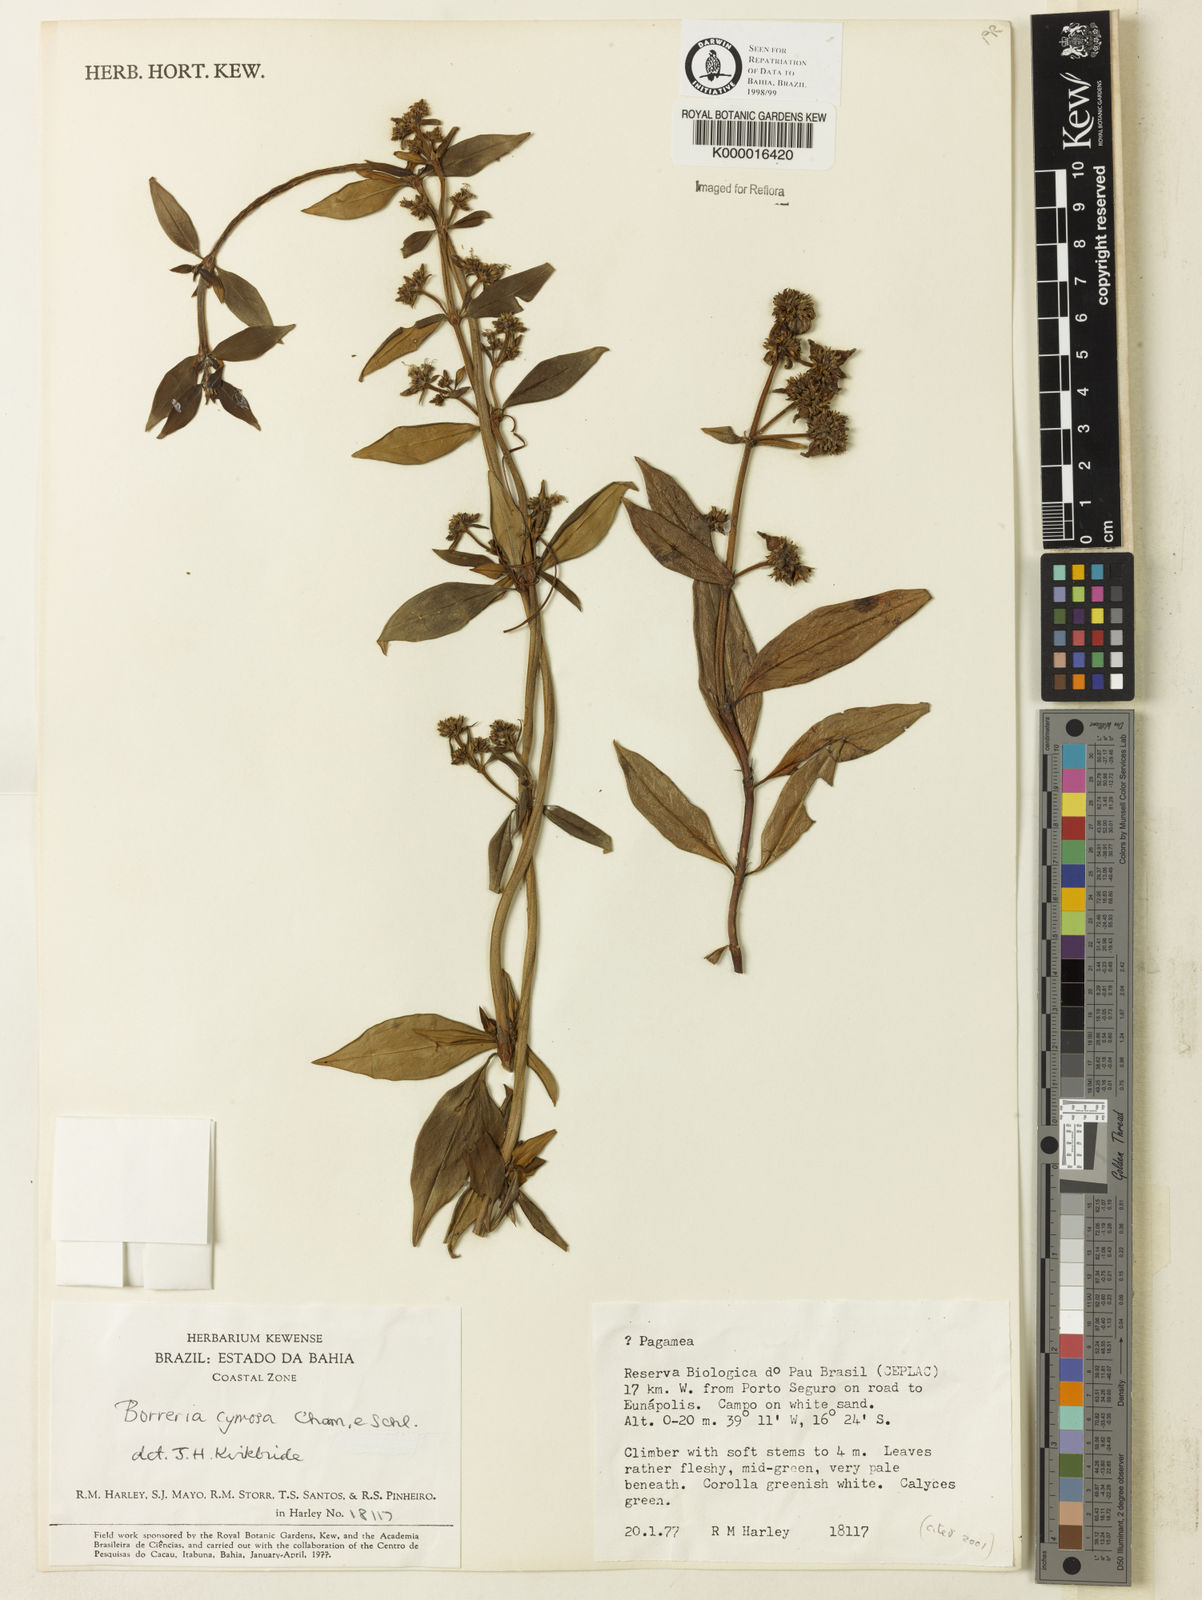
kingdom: Plantae
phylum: Tracheophyta
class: Magnoliopsida
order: Gentianales
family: Rubiaceae
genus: Denscantia
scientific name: Denscantia cymosa
